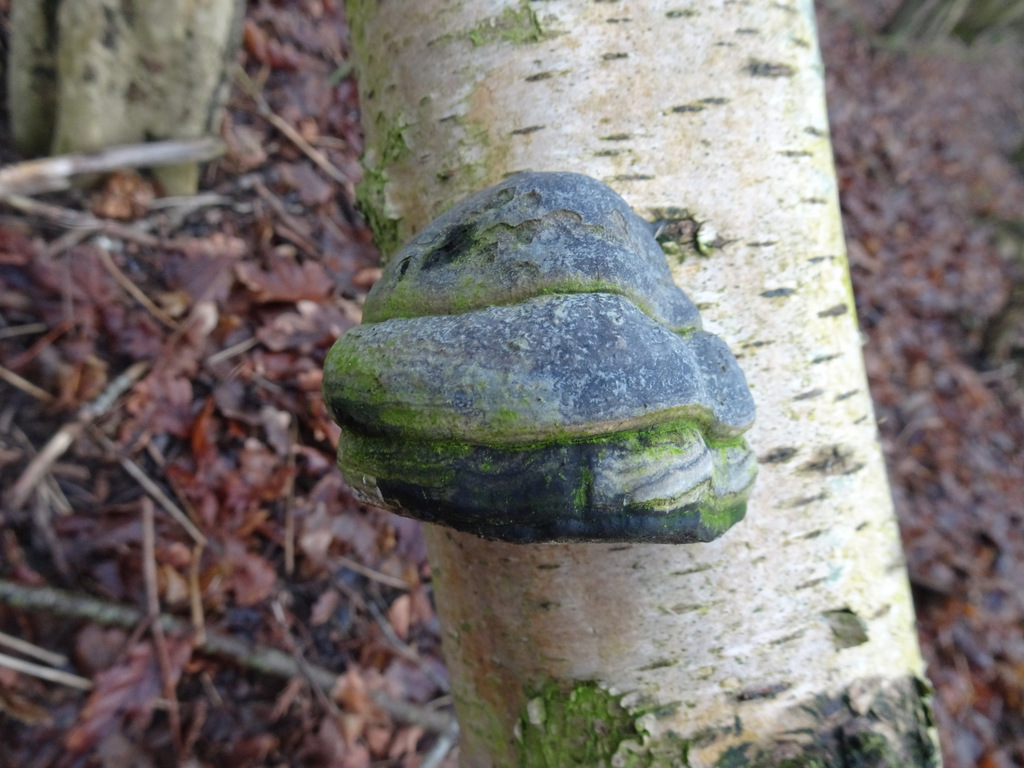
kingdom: Fungi
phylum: Basidiomycota
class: Agaricomycetes
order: Polyporales
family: Polyporaceae
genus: Fomes
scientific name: Fomes fomentarius
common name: tøndersvamp
